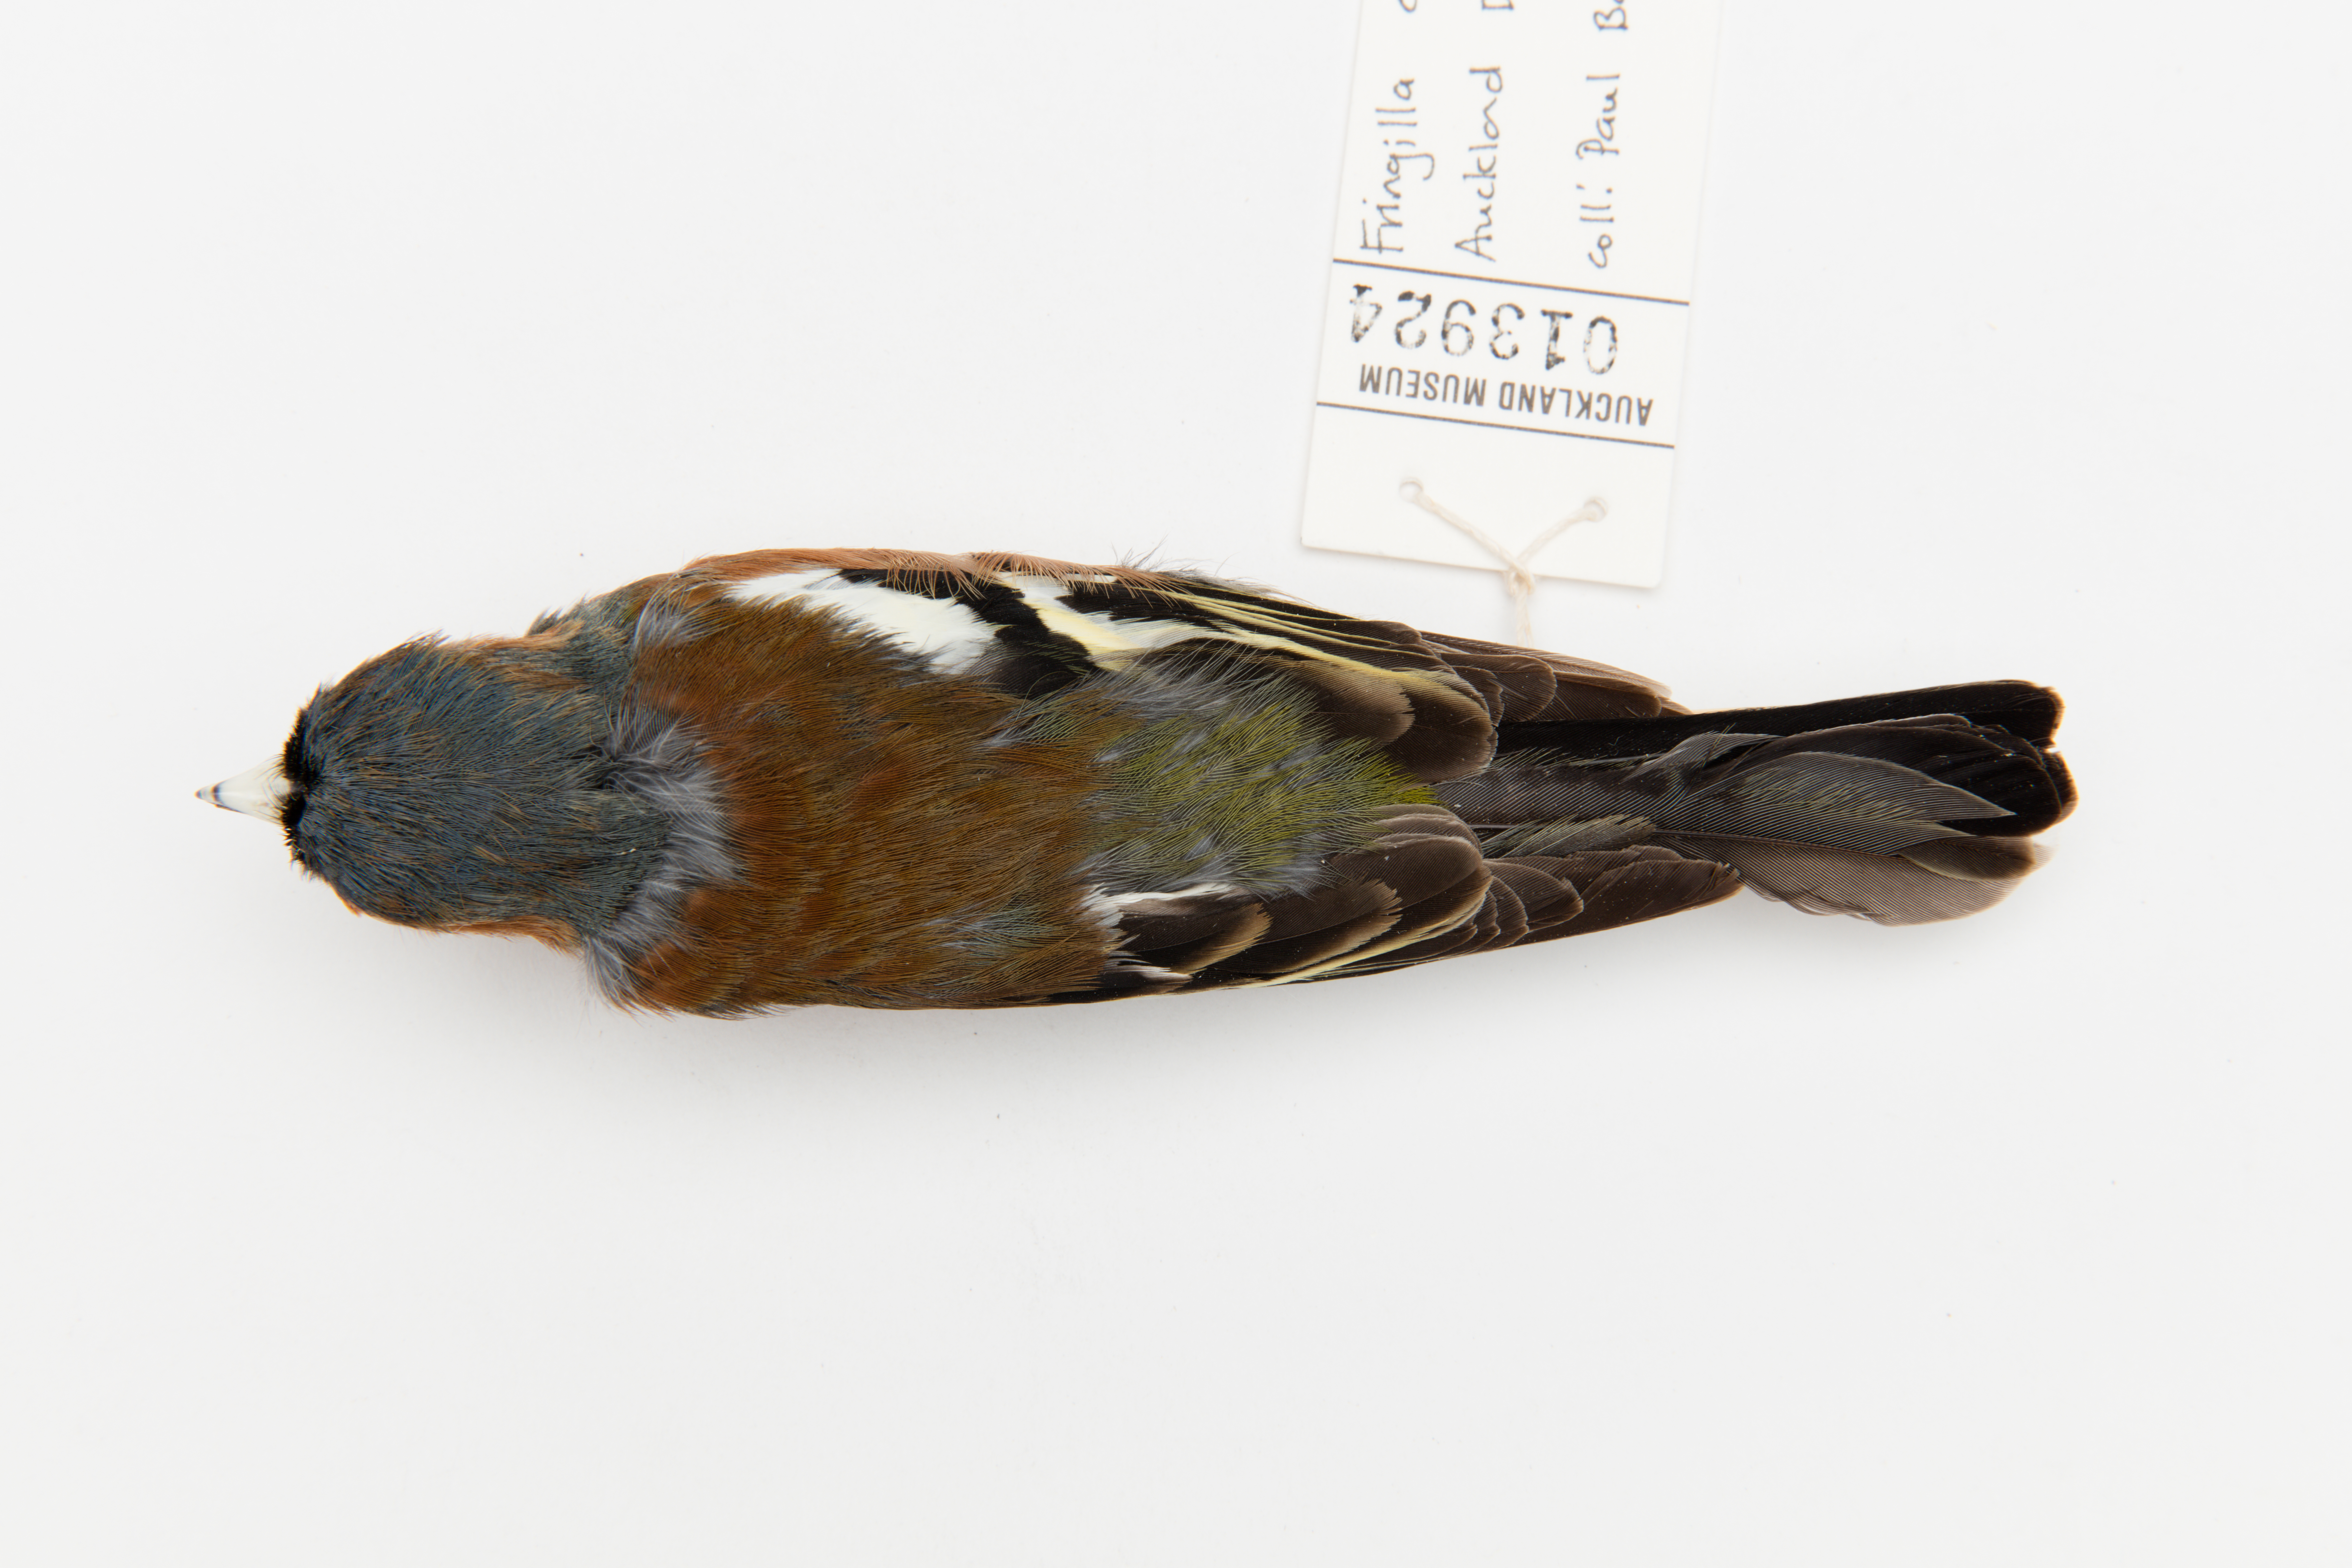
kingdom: Animalia
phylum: Chordata
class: Aves
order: Passeriformes
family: Fringillidae
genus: Fringilla
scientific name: Fringilla coelebs
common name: Common chaffinch
